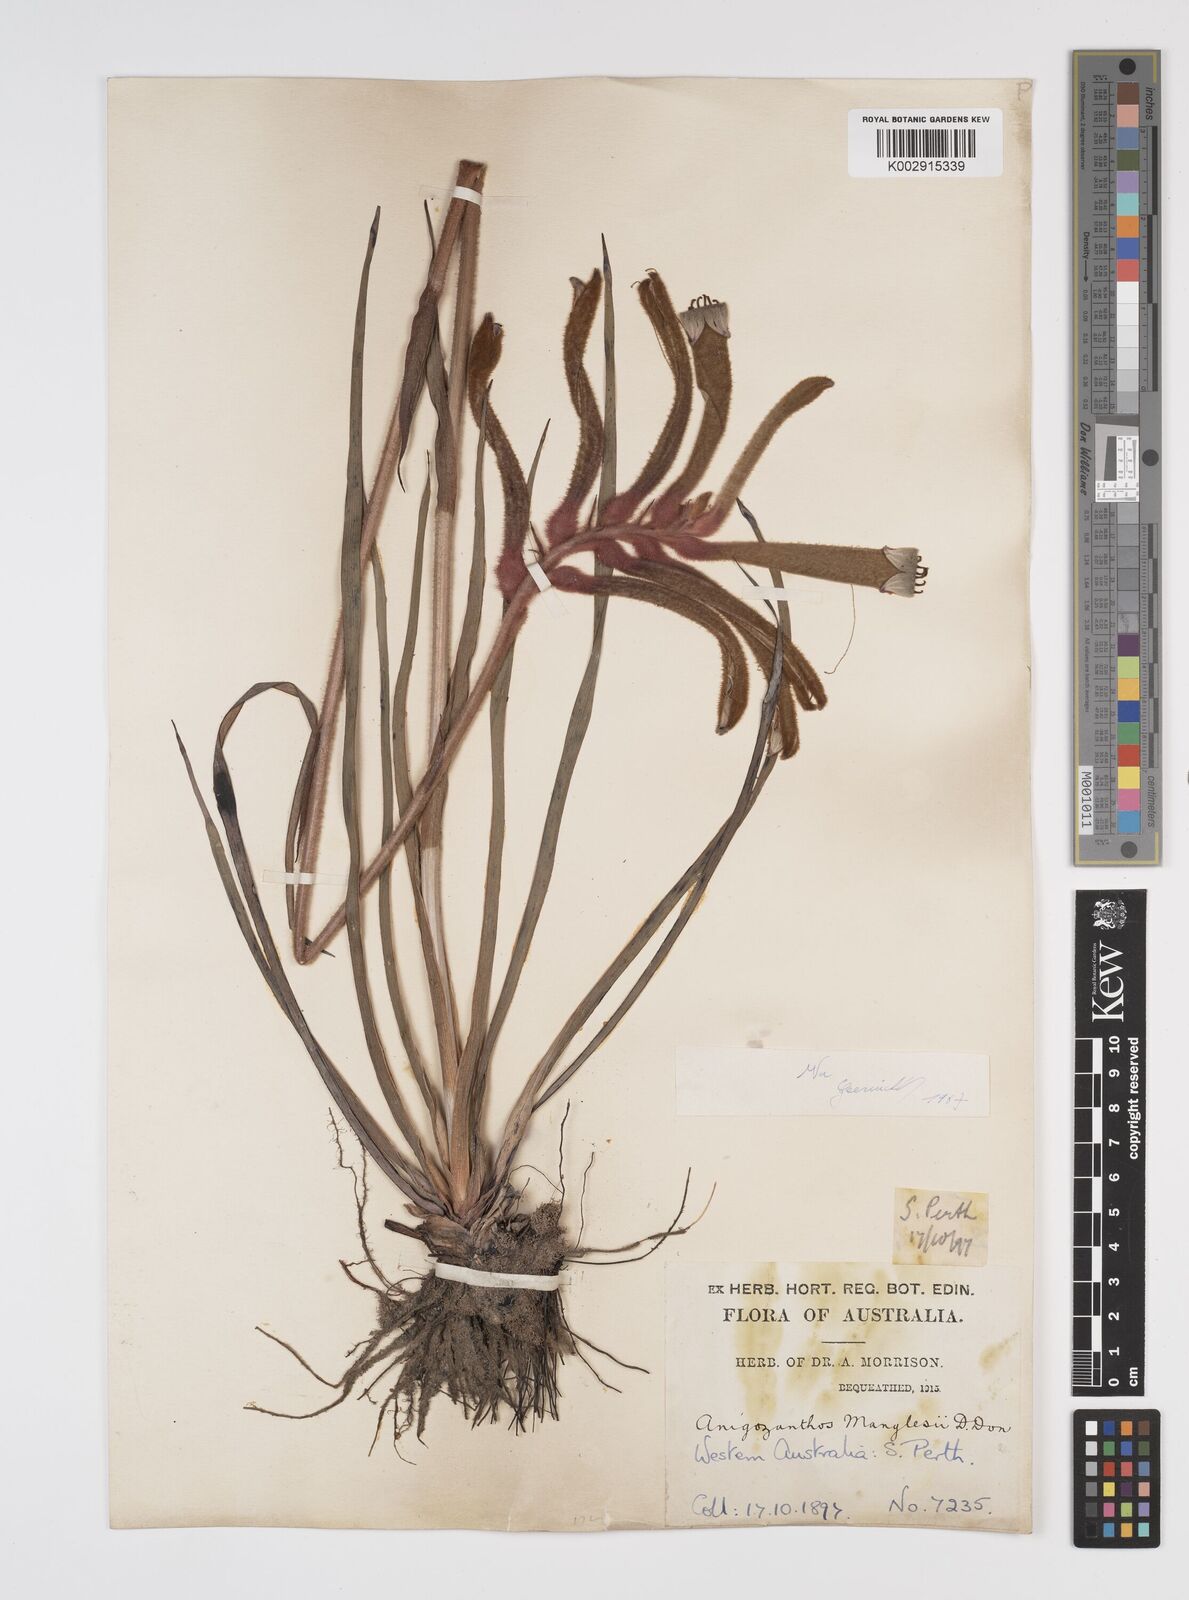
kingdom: Plantae
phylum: Tracheophyta
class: Liliopsida
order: Commelinales
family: Haemodoraceae
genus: Anigozanthos
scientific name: Anigozanthos manglesii
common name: Mangles's kangaroo-paw
